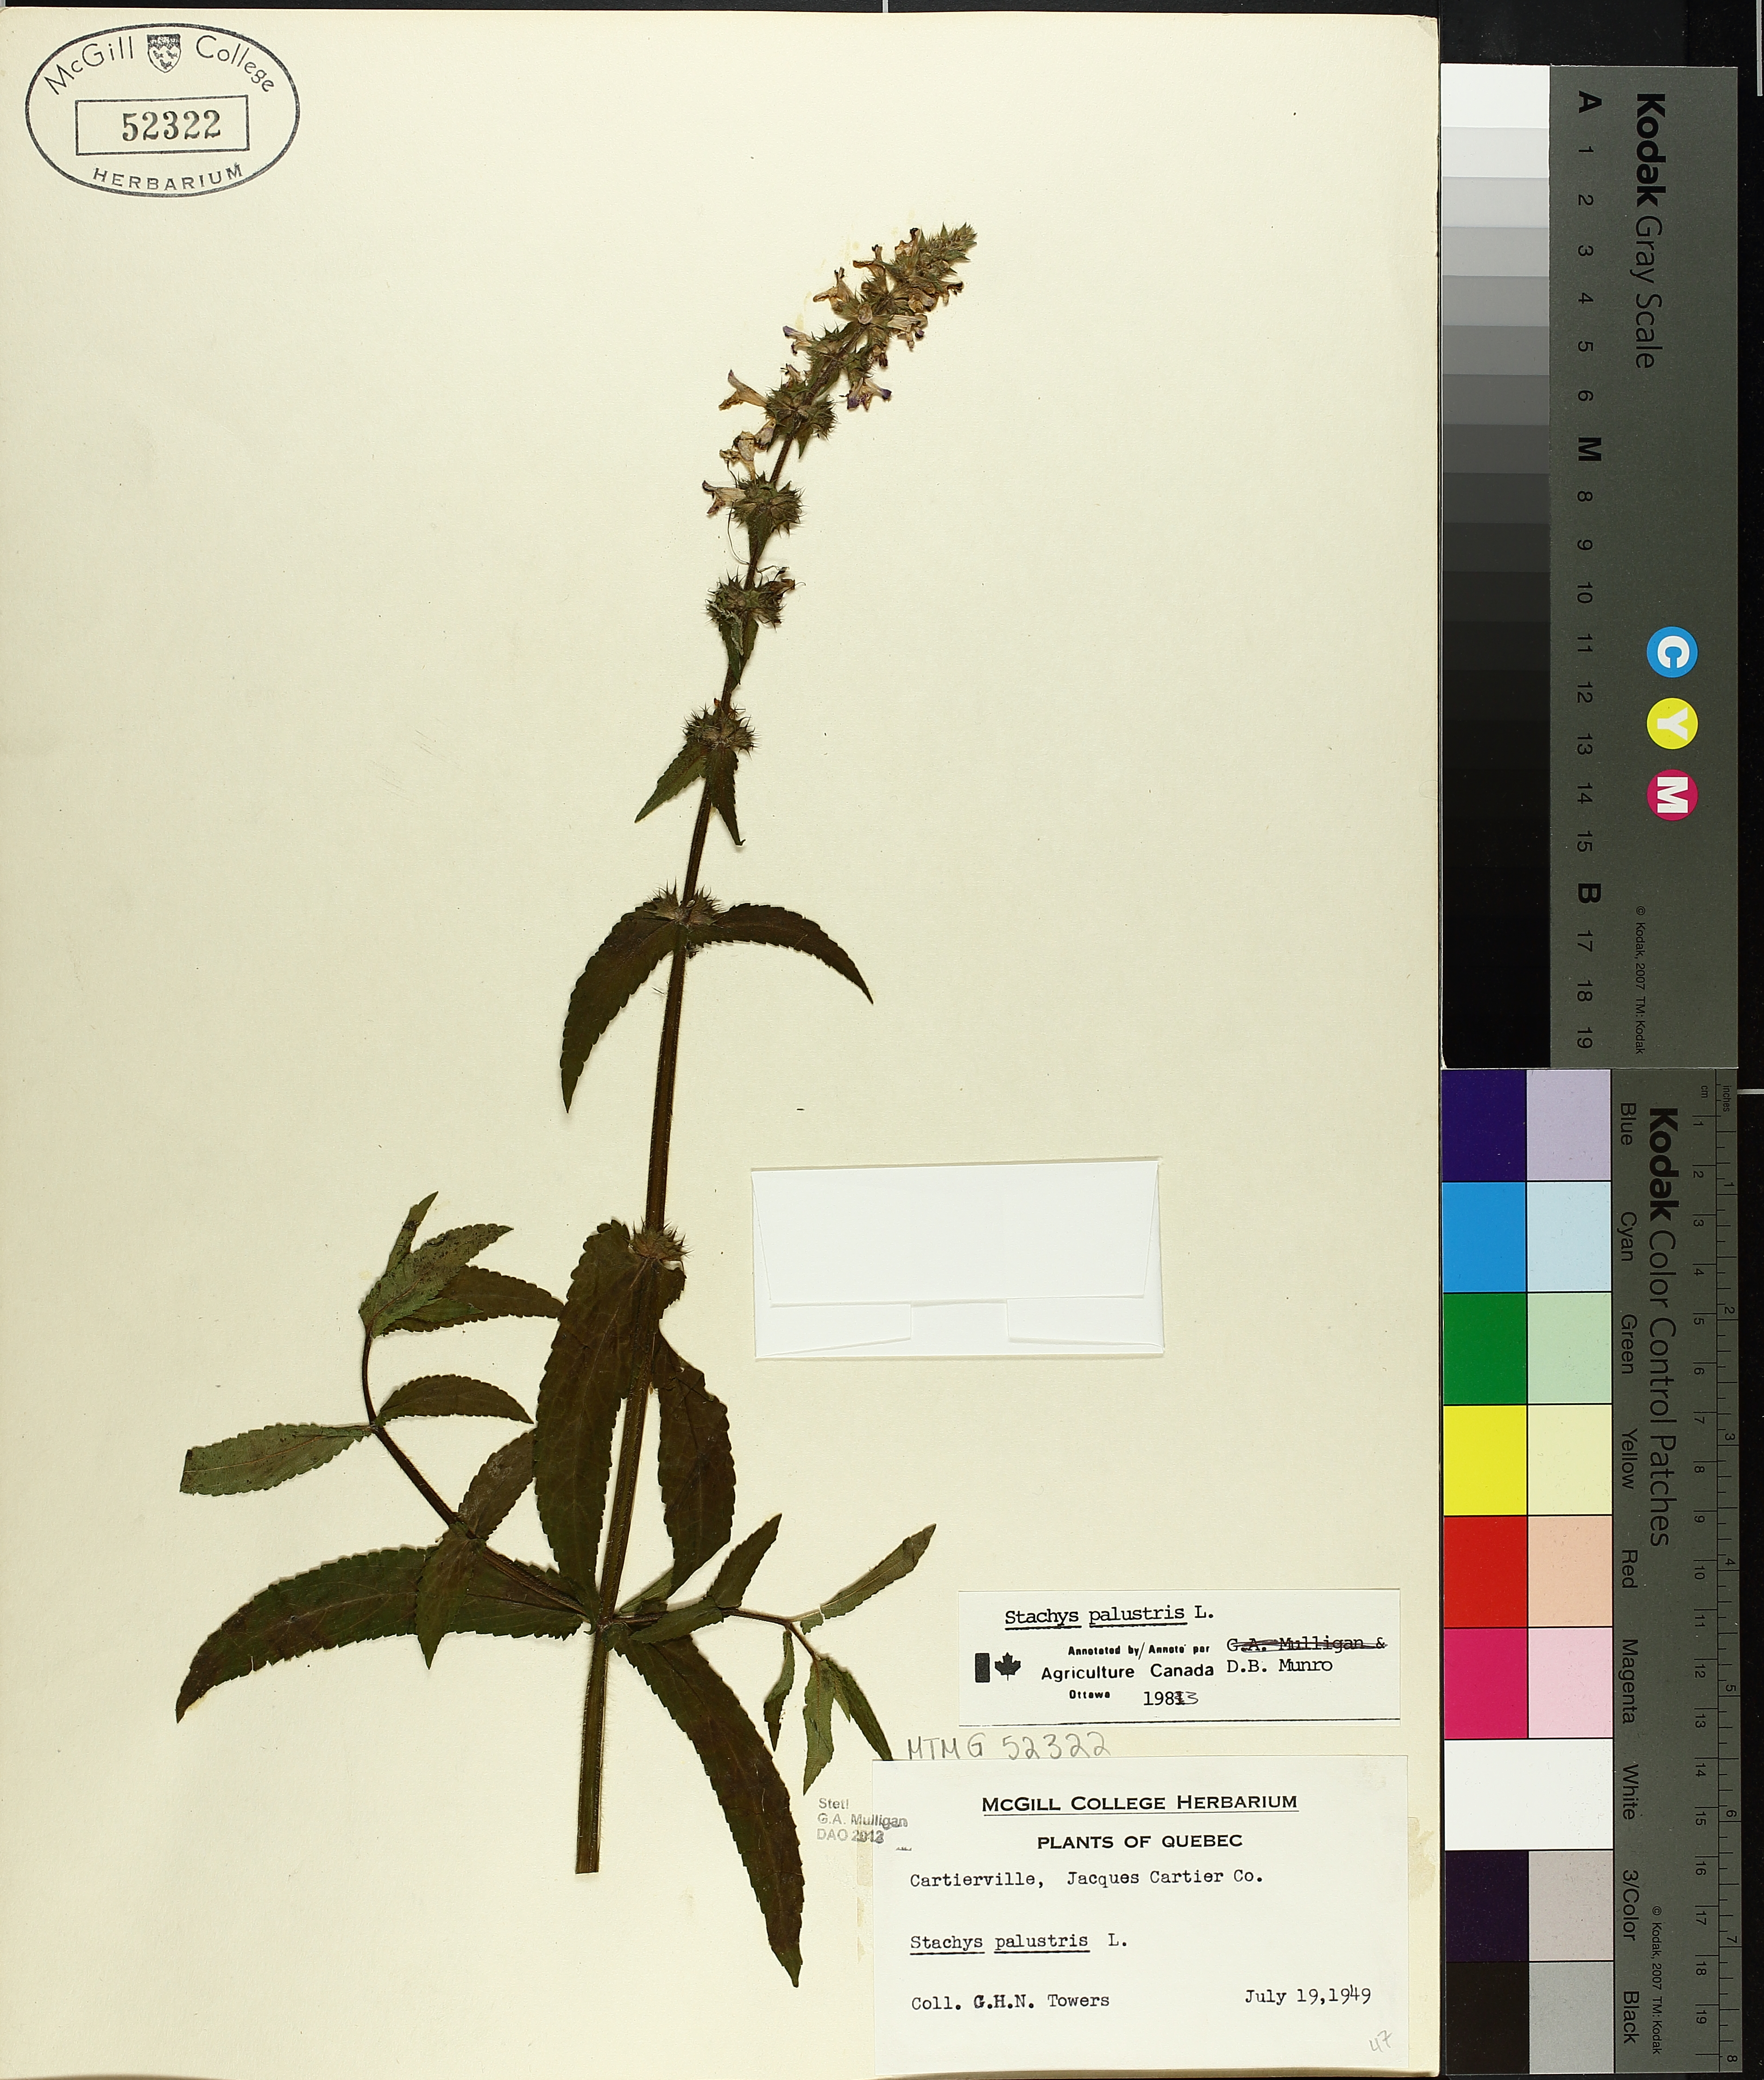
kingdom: Plantae
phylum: Tracheophyta
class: Magnoliopsida
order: Lamiales
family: Lamiaceae
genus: Stachys
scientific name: Stachys palustris
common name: Marsh woundwort
